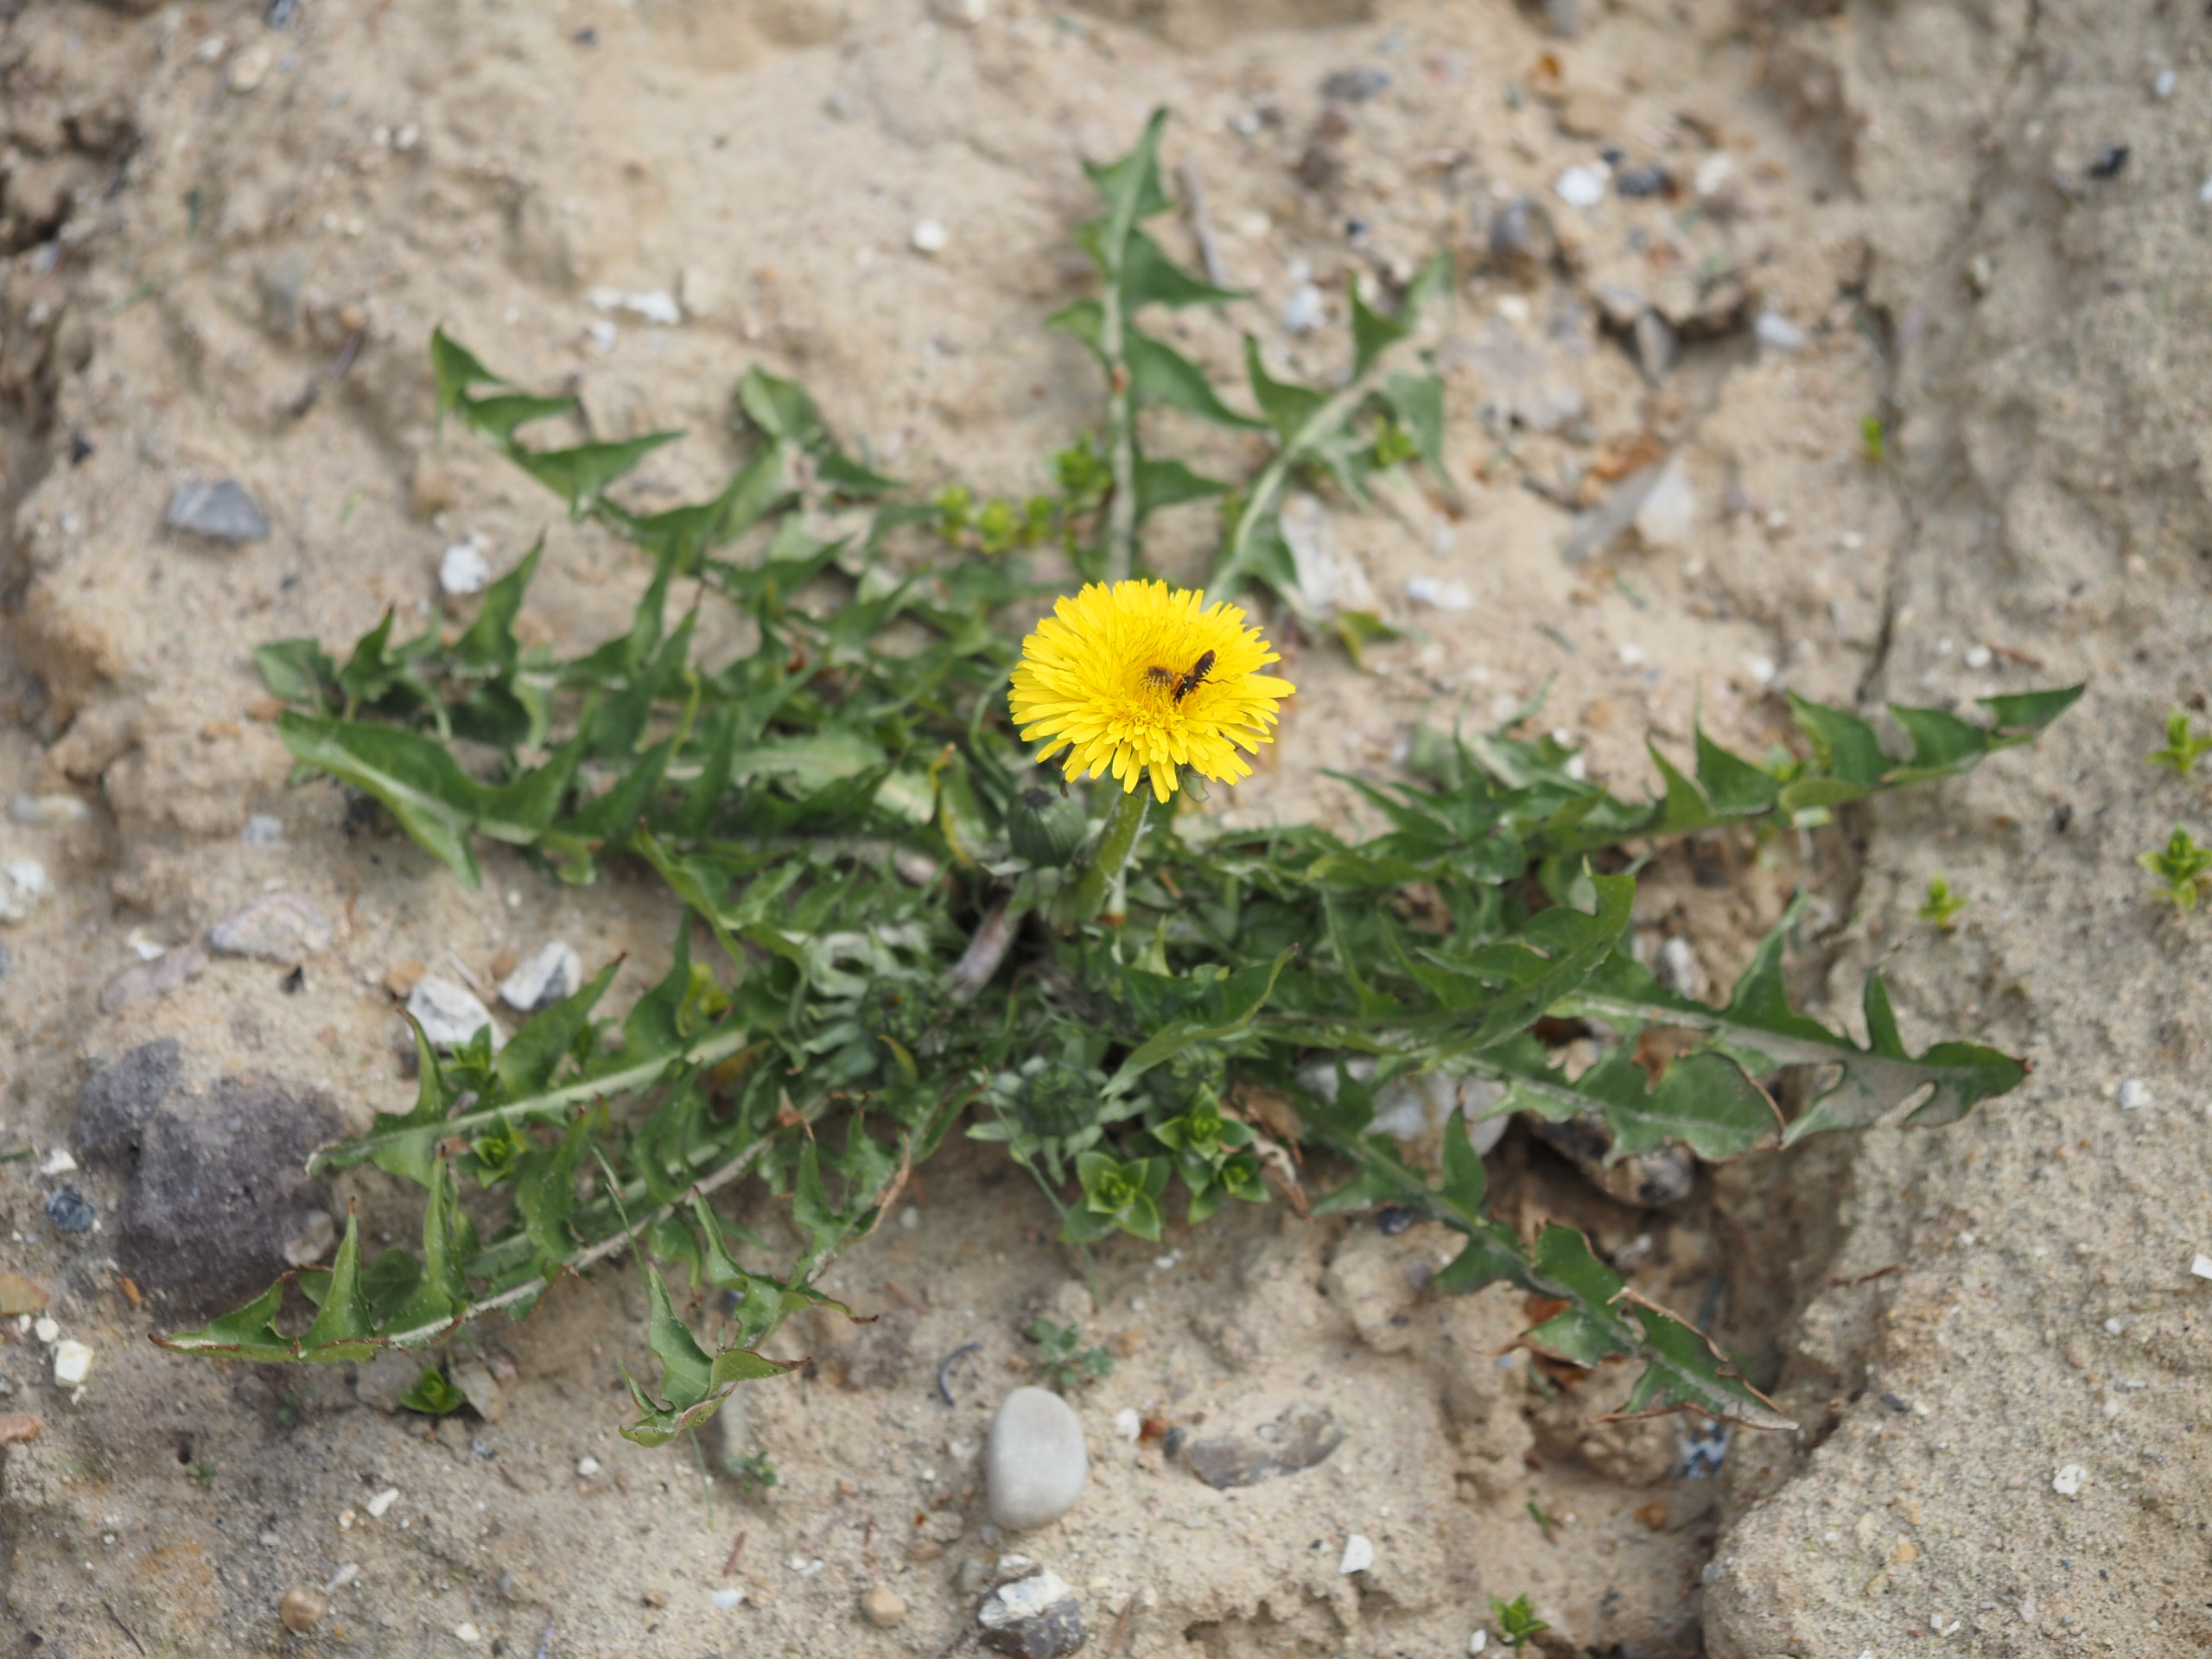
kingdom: Plantae
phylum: Tracheophyta
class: Magnoliopsida
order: Asterales
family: Asteraceae
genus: Taraxacum
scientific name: Taraxacum
